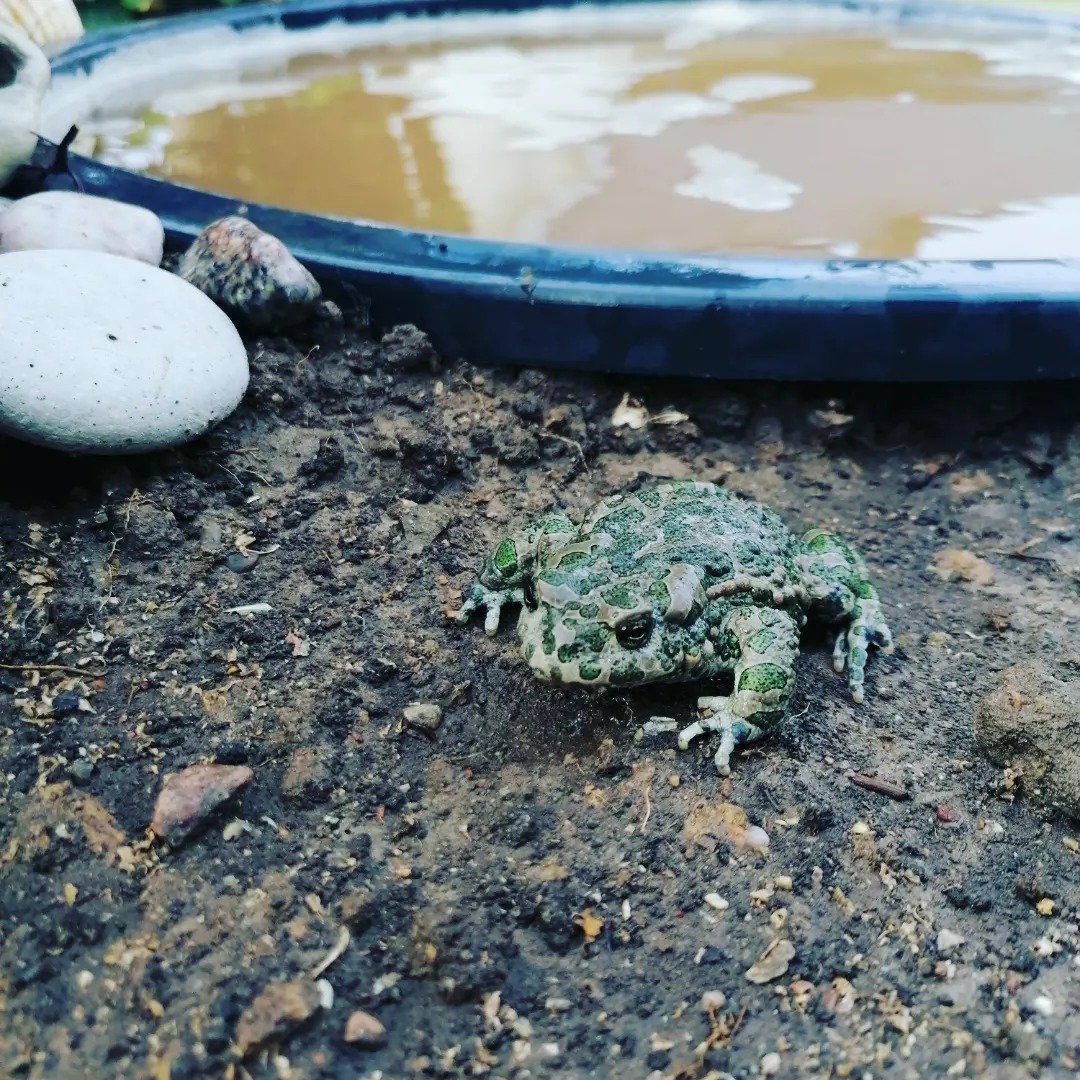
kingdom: Animalia
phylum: Chordata
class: Amphibia
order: Anura
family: Bufonidae
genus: Bufotes
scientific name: Bufotes viridis
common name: Grønbroget tudse
